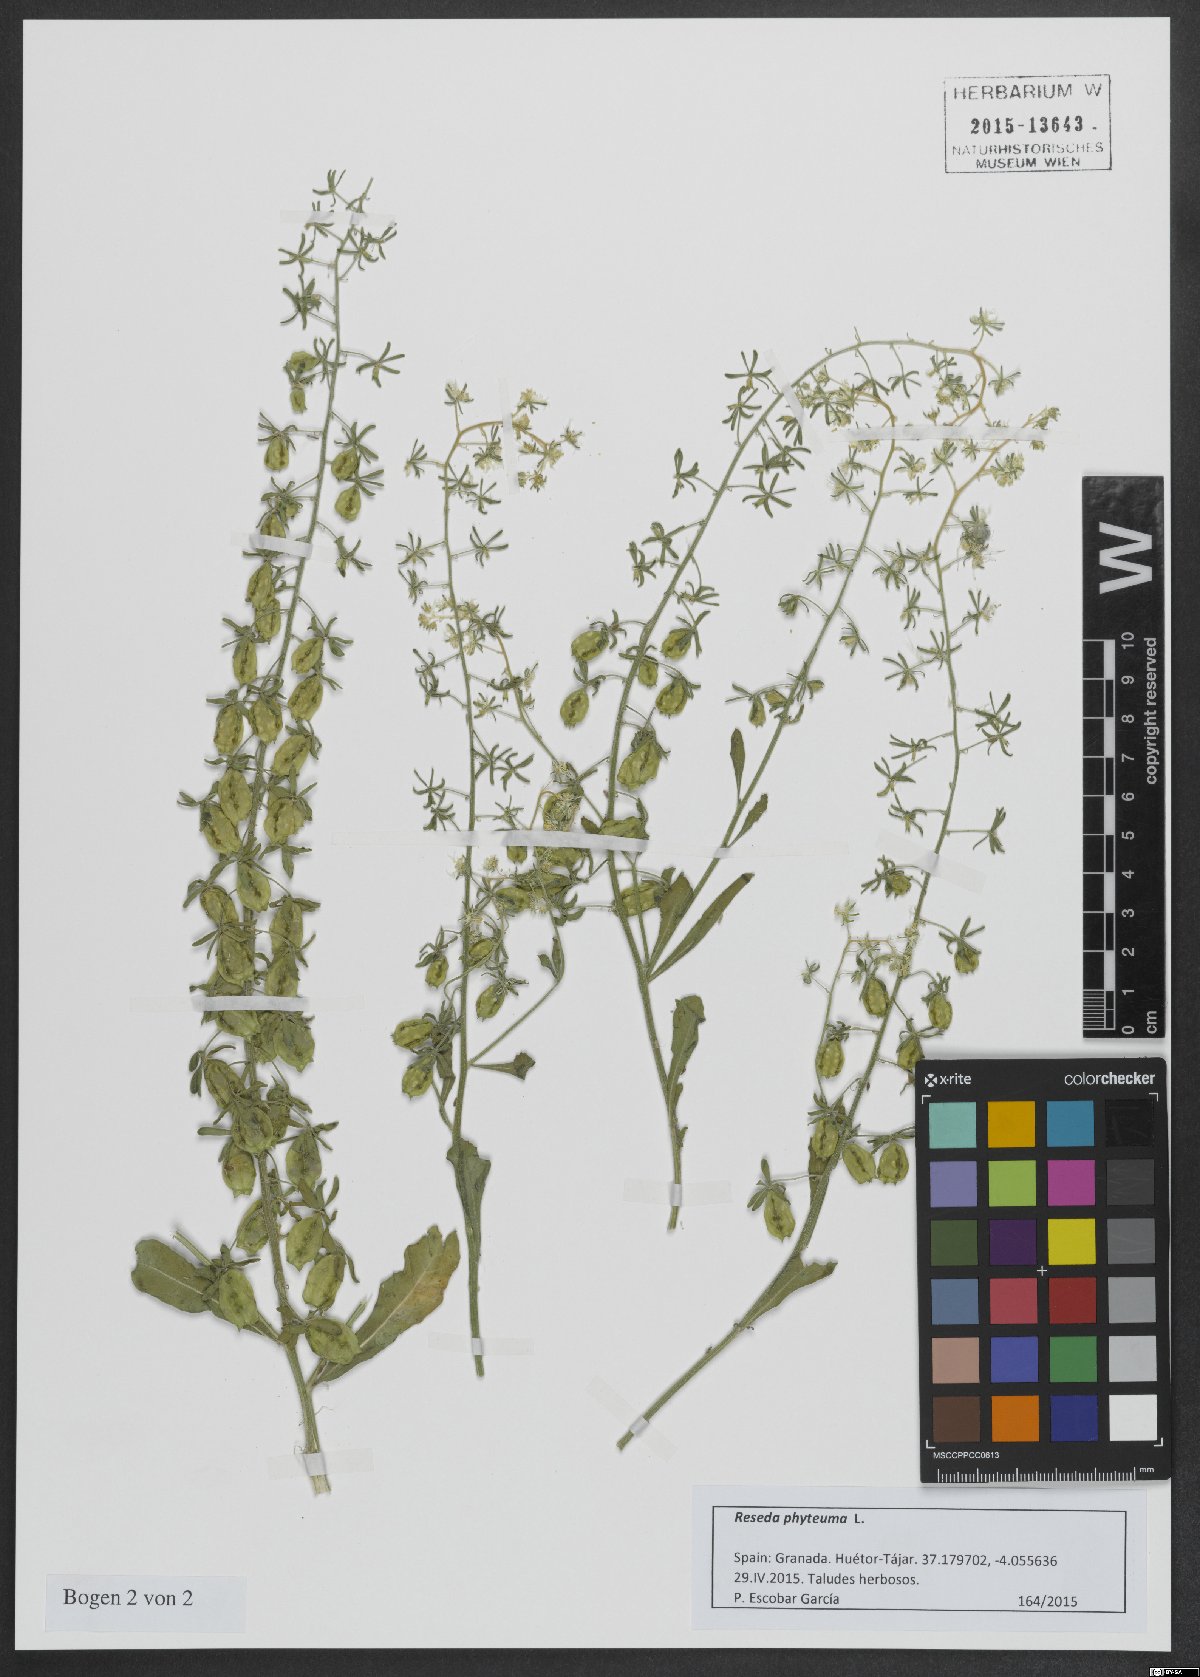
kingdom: Plantae
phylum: Tracheophyta
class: Magnoliopsida
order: Brassicales
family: Resedaceae
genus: Reseda
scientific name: Reseda phyteuma
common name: Corn mignonette
